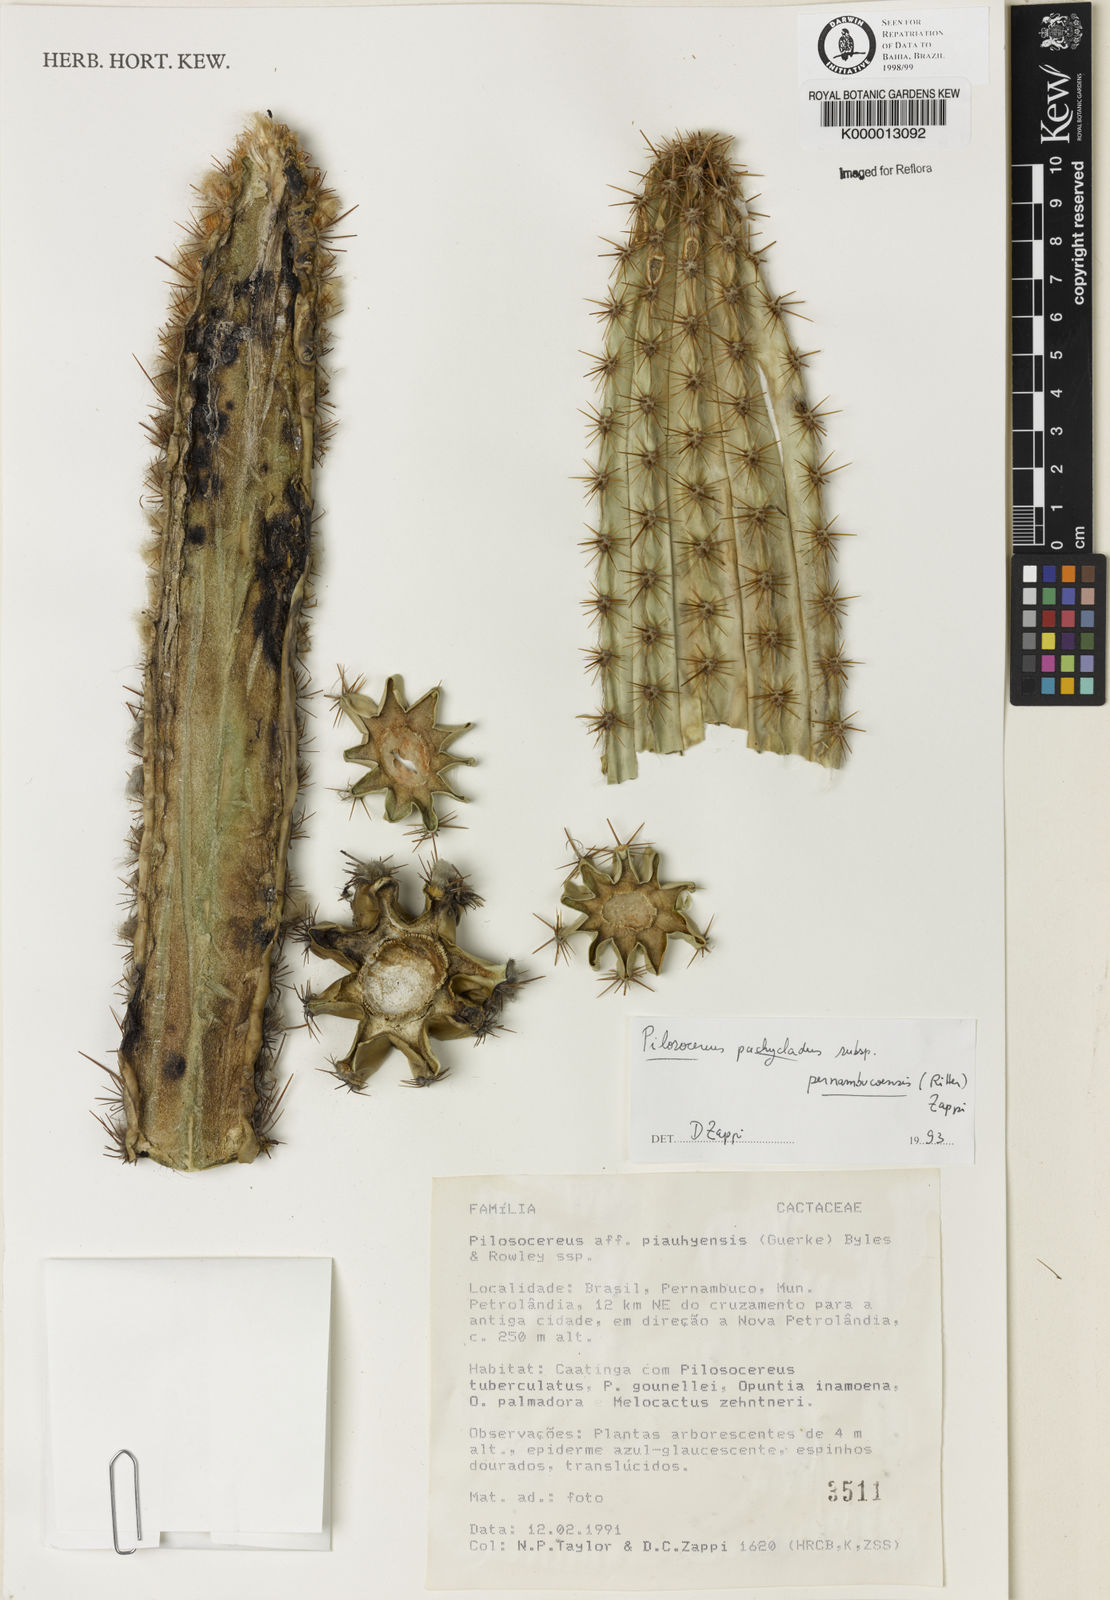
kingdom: Plantae
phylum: Tracheophyta
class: Magnoliopsida
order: Caryophyllales
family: Cactaceae
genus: Pilosocereus
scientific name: Pilosocereus pachycladus
